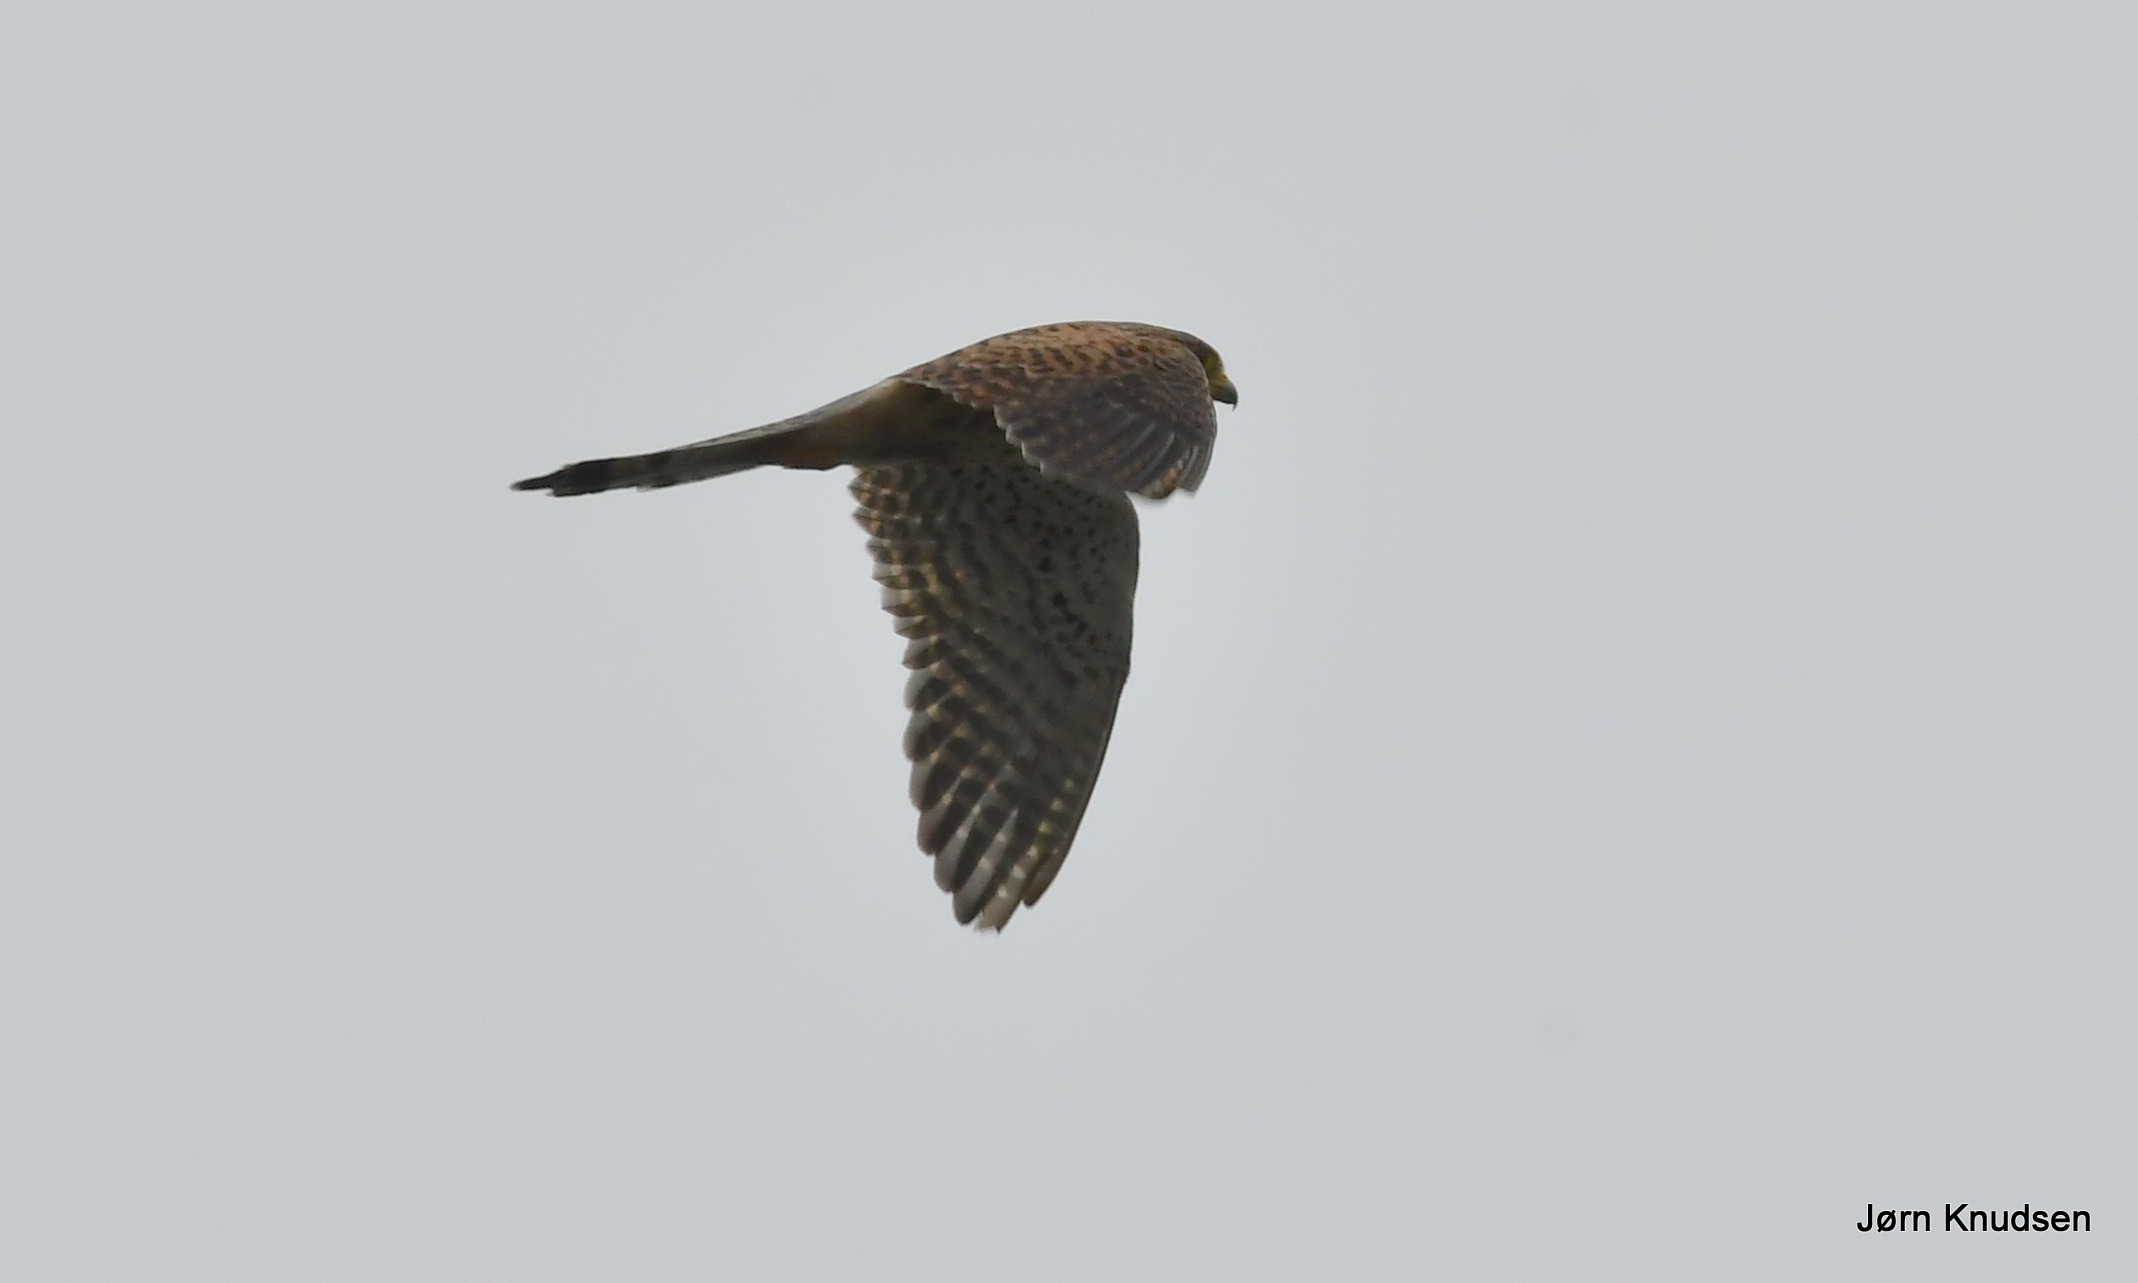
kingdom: Animalia
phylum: Chordata
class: Aves
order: Falconiformes
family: Falconidae
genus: Falco
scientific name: Falco tinnunculus
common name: Tårnfalk
